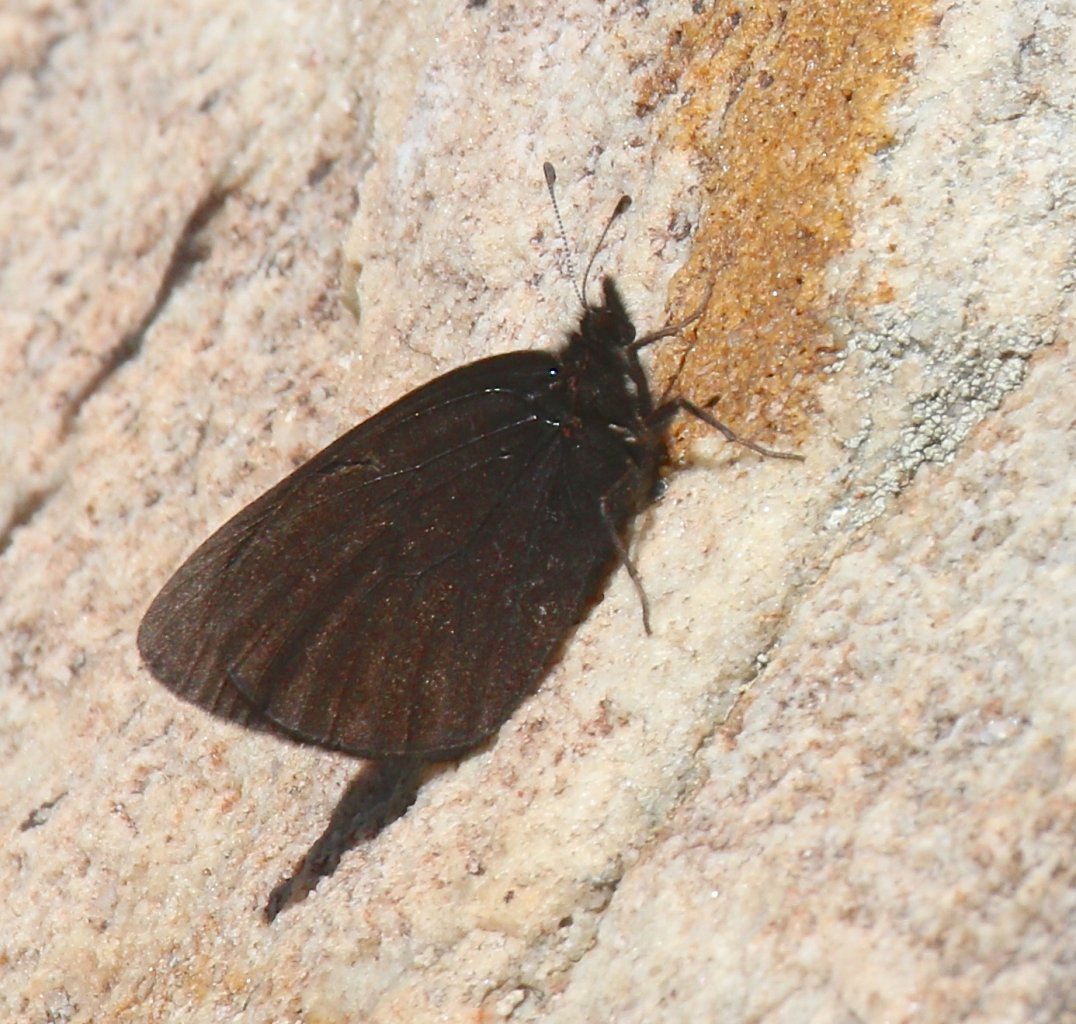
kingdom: Animalia
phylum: Arthropoda
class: Insecta
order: Lepidoptera
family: Nymphalidae
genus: Erebia
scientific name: Erebia magdalena
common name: Magdalena Alpine
